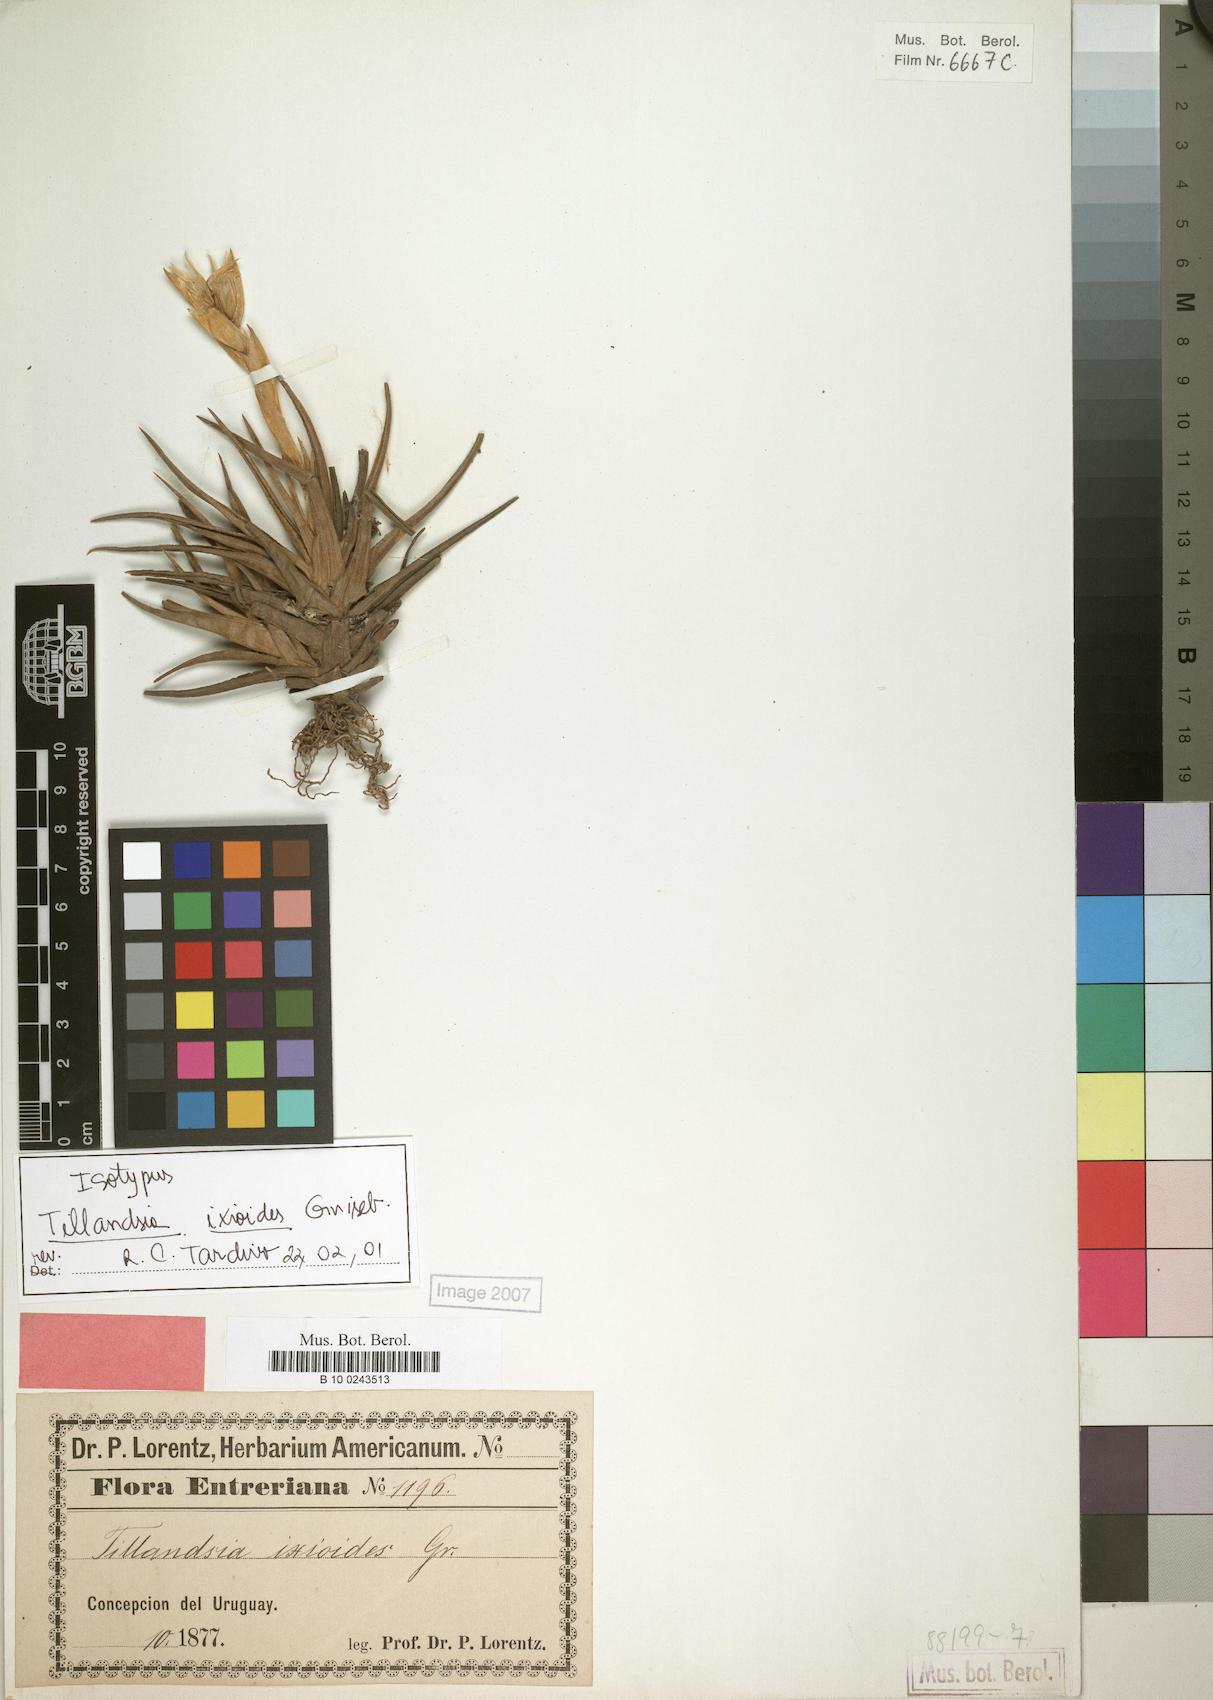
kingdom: Plantae
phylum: Tracheophyta
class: Liliopsida
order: Poales
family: Bromeliaceae
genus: Tillandsia
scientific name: Tillandsia ixioides
